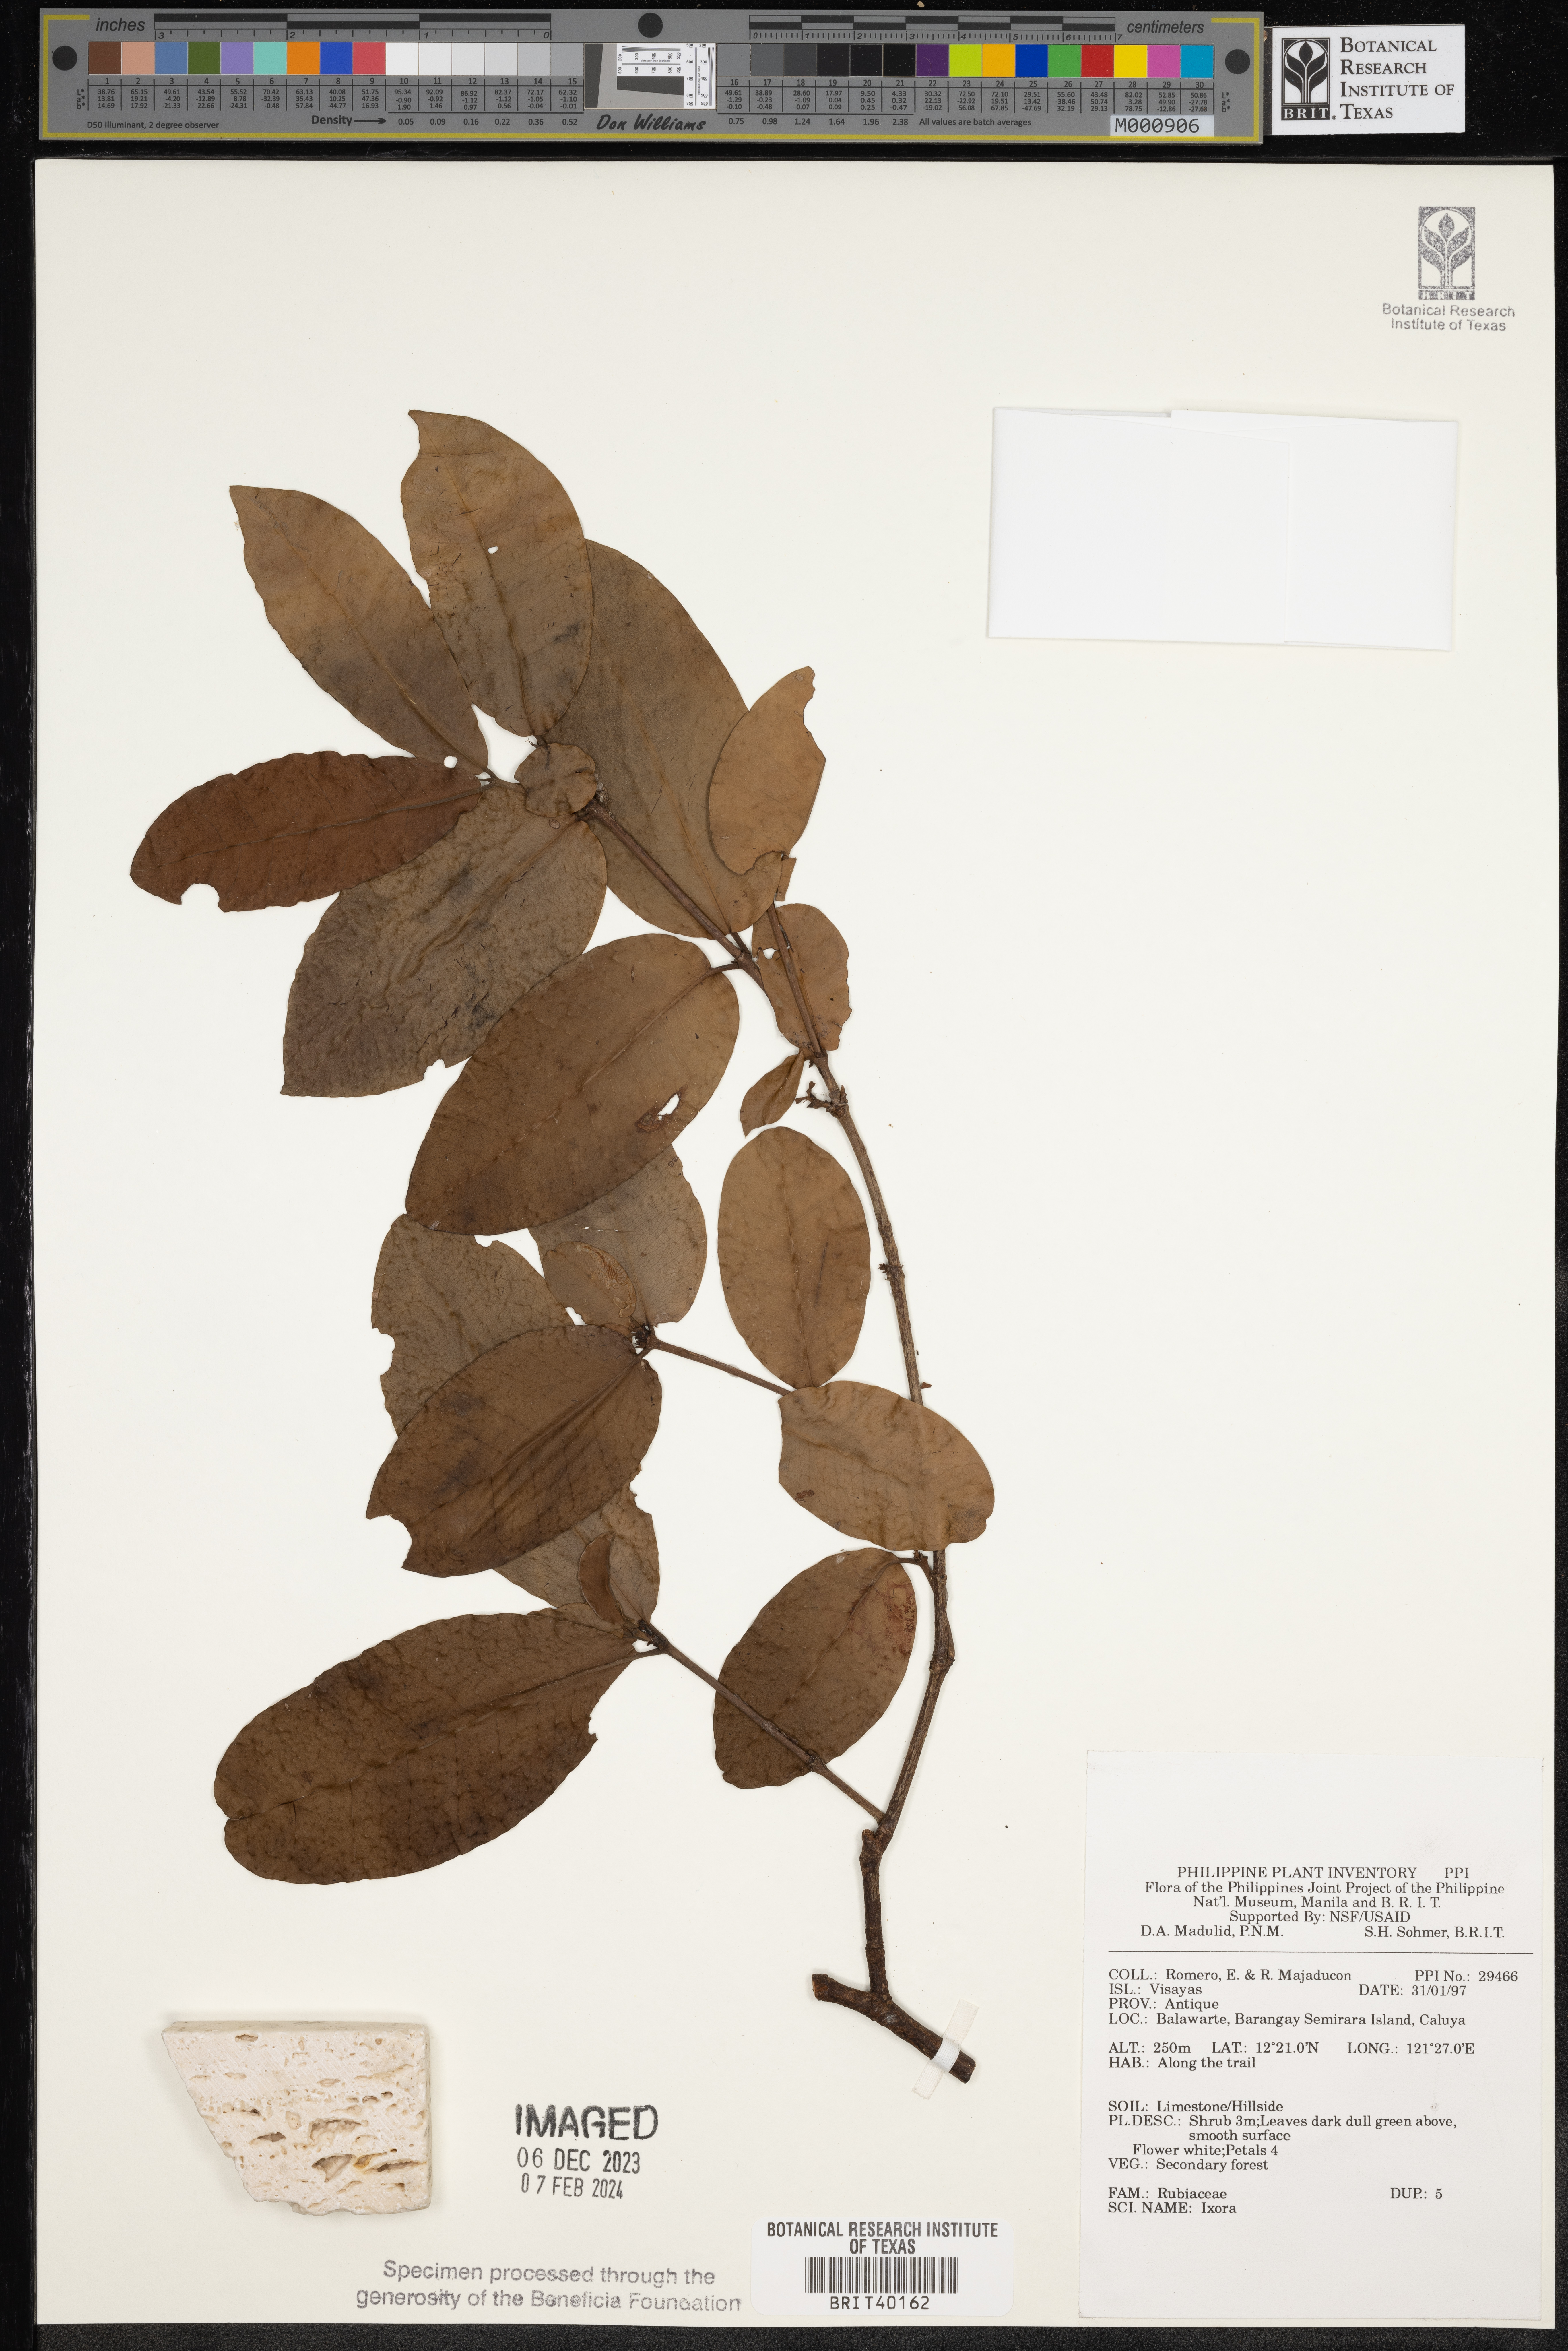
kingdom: Plantae
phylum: Tracheophyta
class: Magnoliopsida
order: Gentianales
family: Rubiaceae
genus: Ixora
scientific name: Ixora
